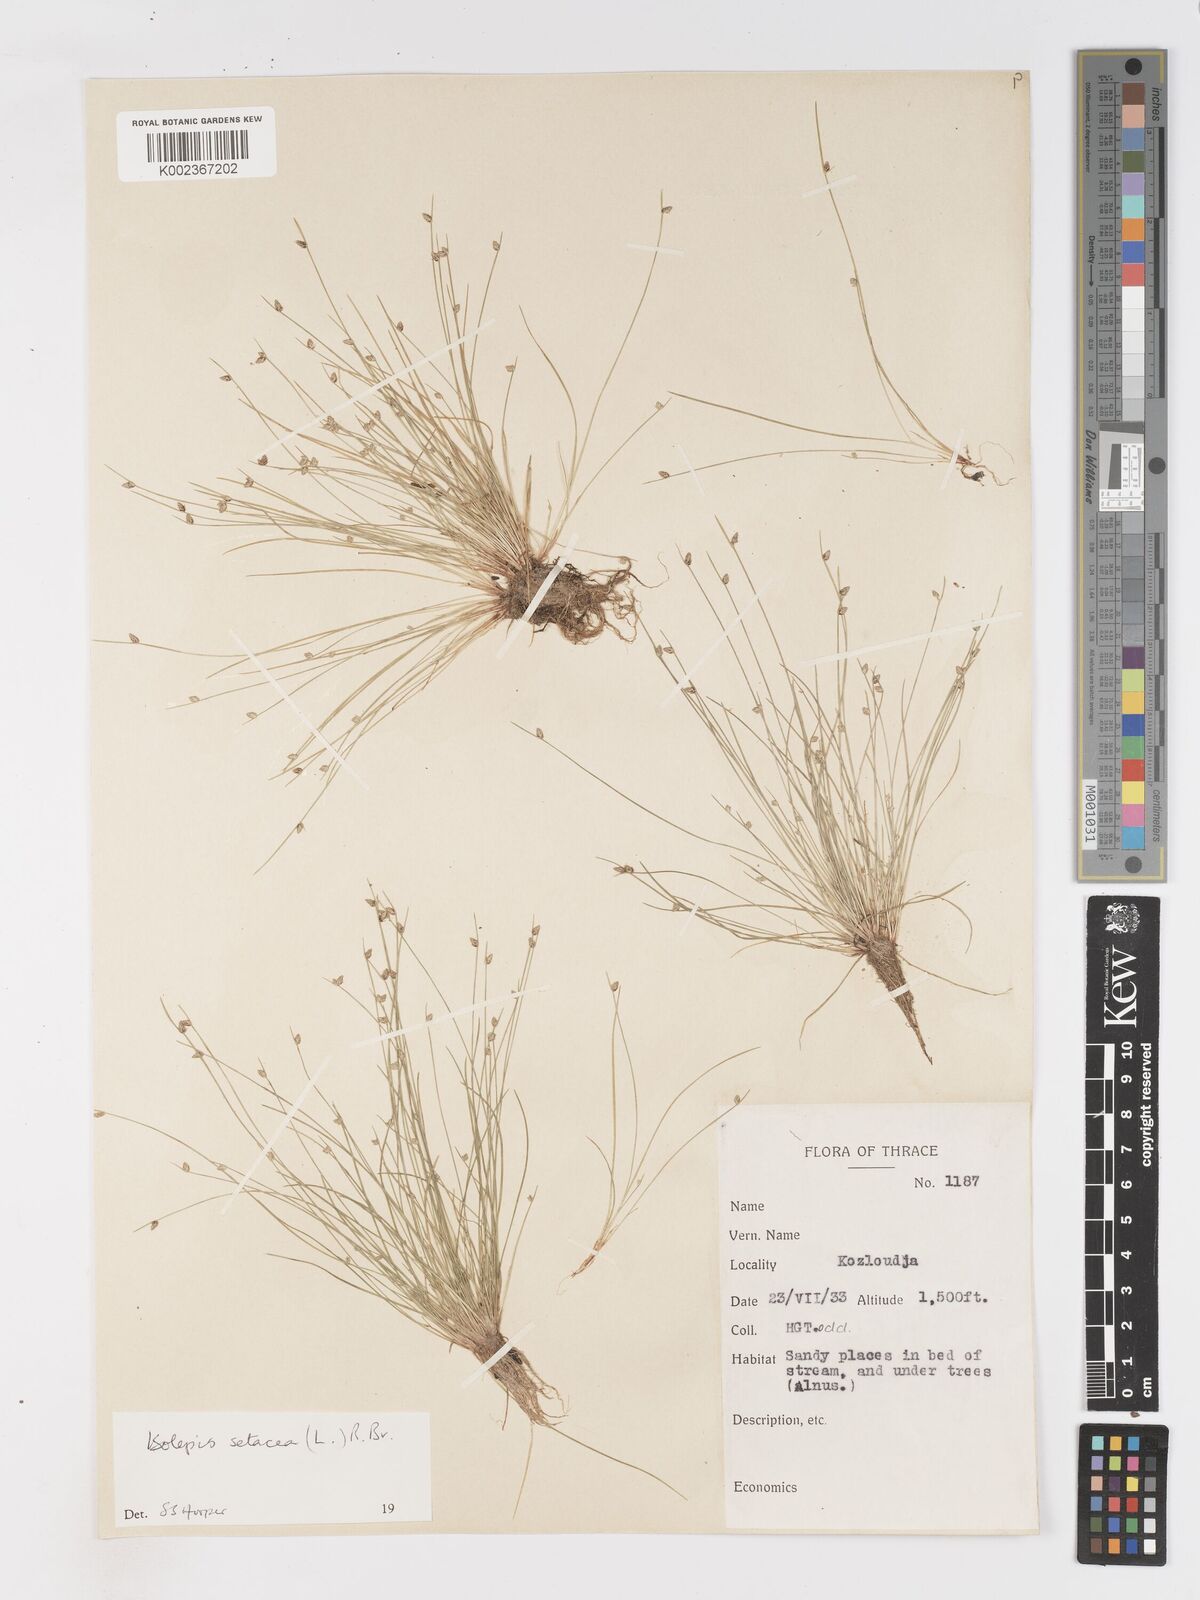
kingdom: Plantae
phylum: Tracheophyta
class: Liliopsida
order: Poales
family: Cyperaceae
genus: Isolepis
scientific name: Isolepis setacea
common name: Bristle club-rush
